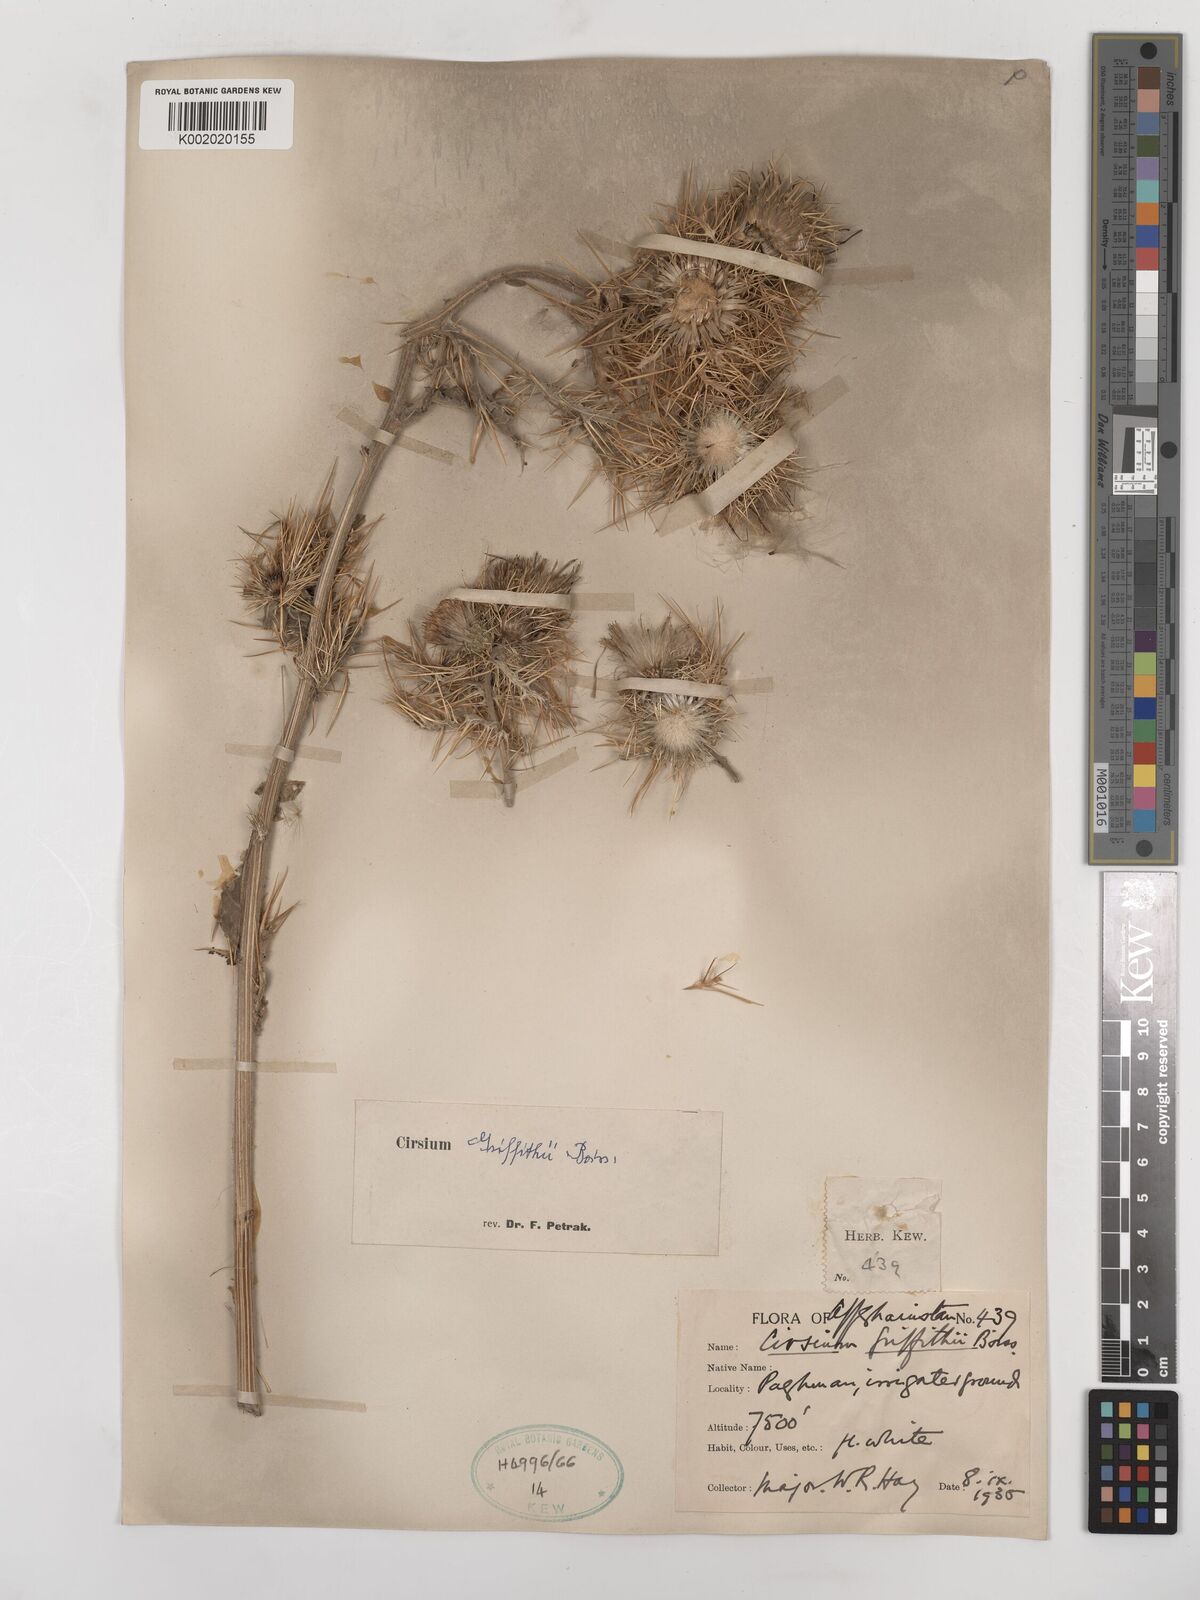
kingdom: Plantae
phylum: Tracheophyta
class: Magnoliopsida
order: Asterales
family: Asteraceae
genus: Lophiolepis
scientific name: Lophiolepis griffithii
